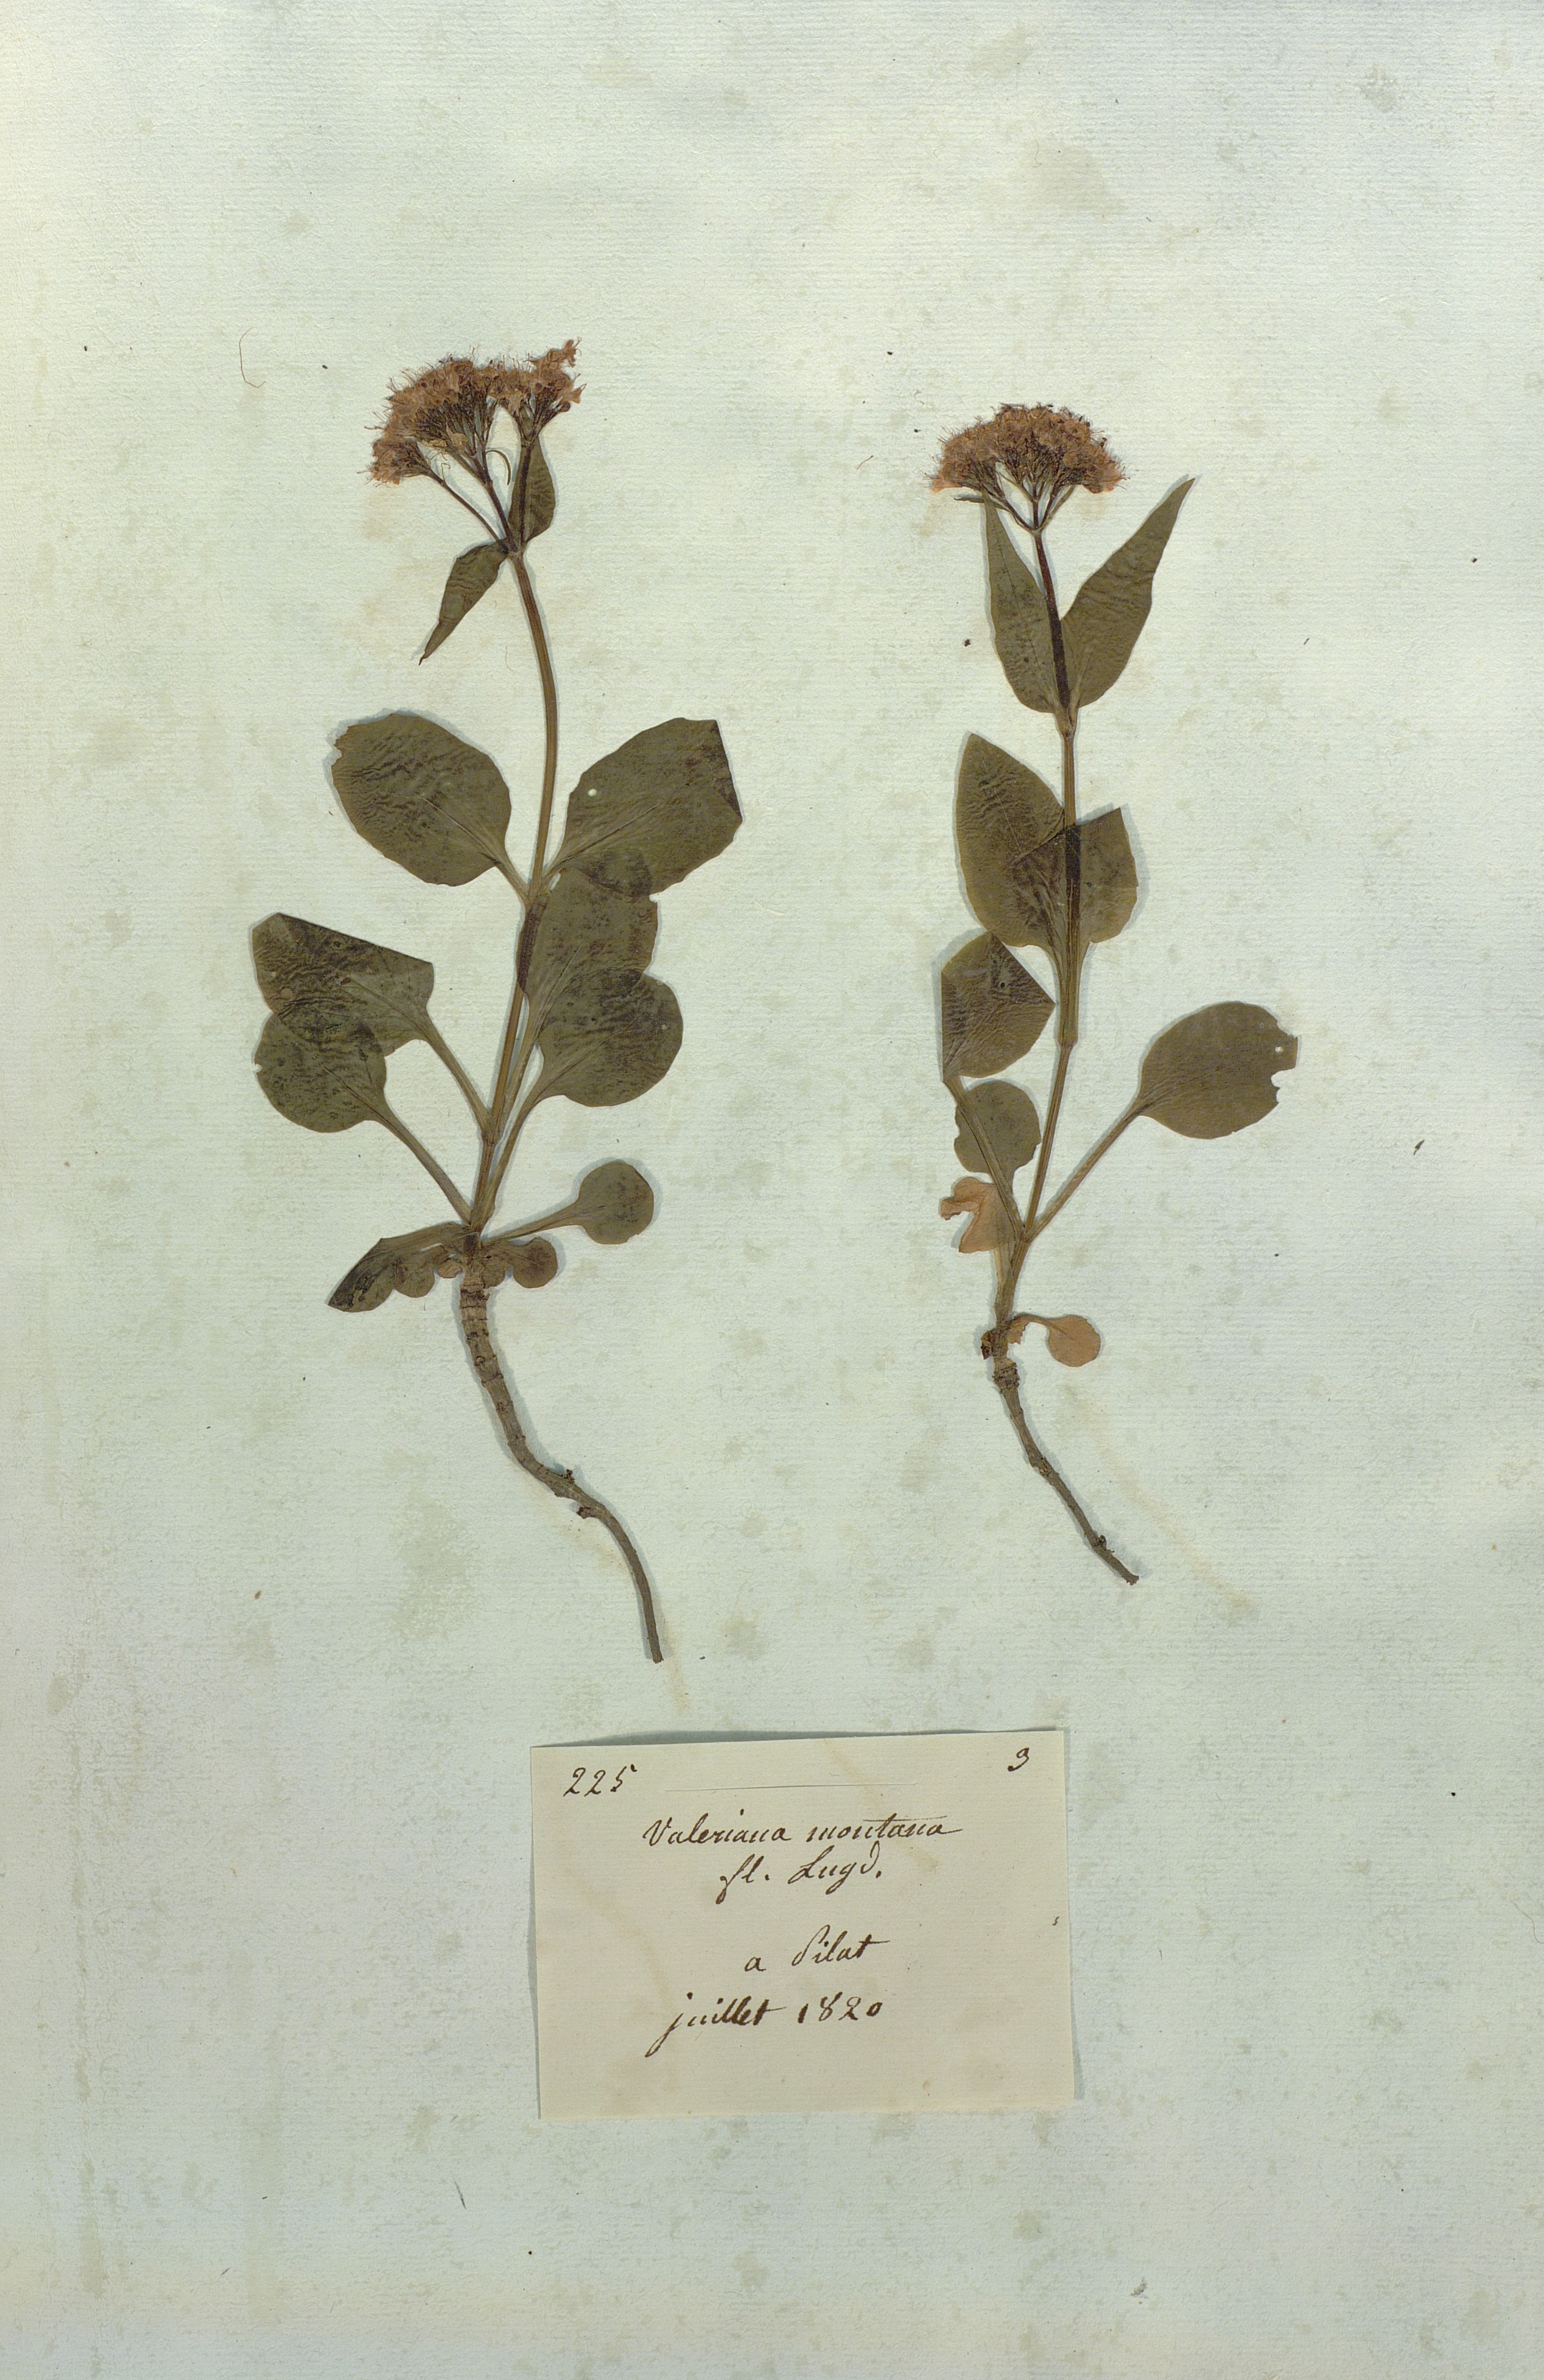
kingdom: Plantae
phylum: Tracheophyta
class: Magnoliopsida
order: Dipsacales
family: Caprifoliaceae
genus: Valeriana
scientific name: Valeriana montana
